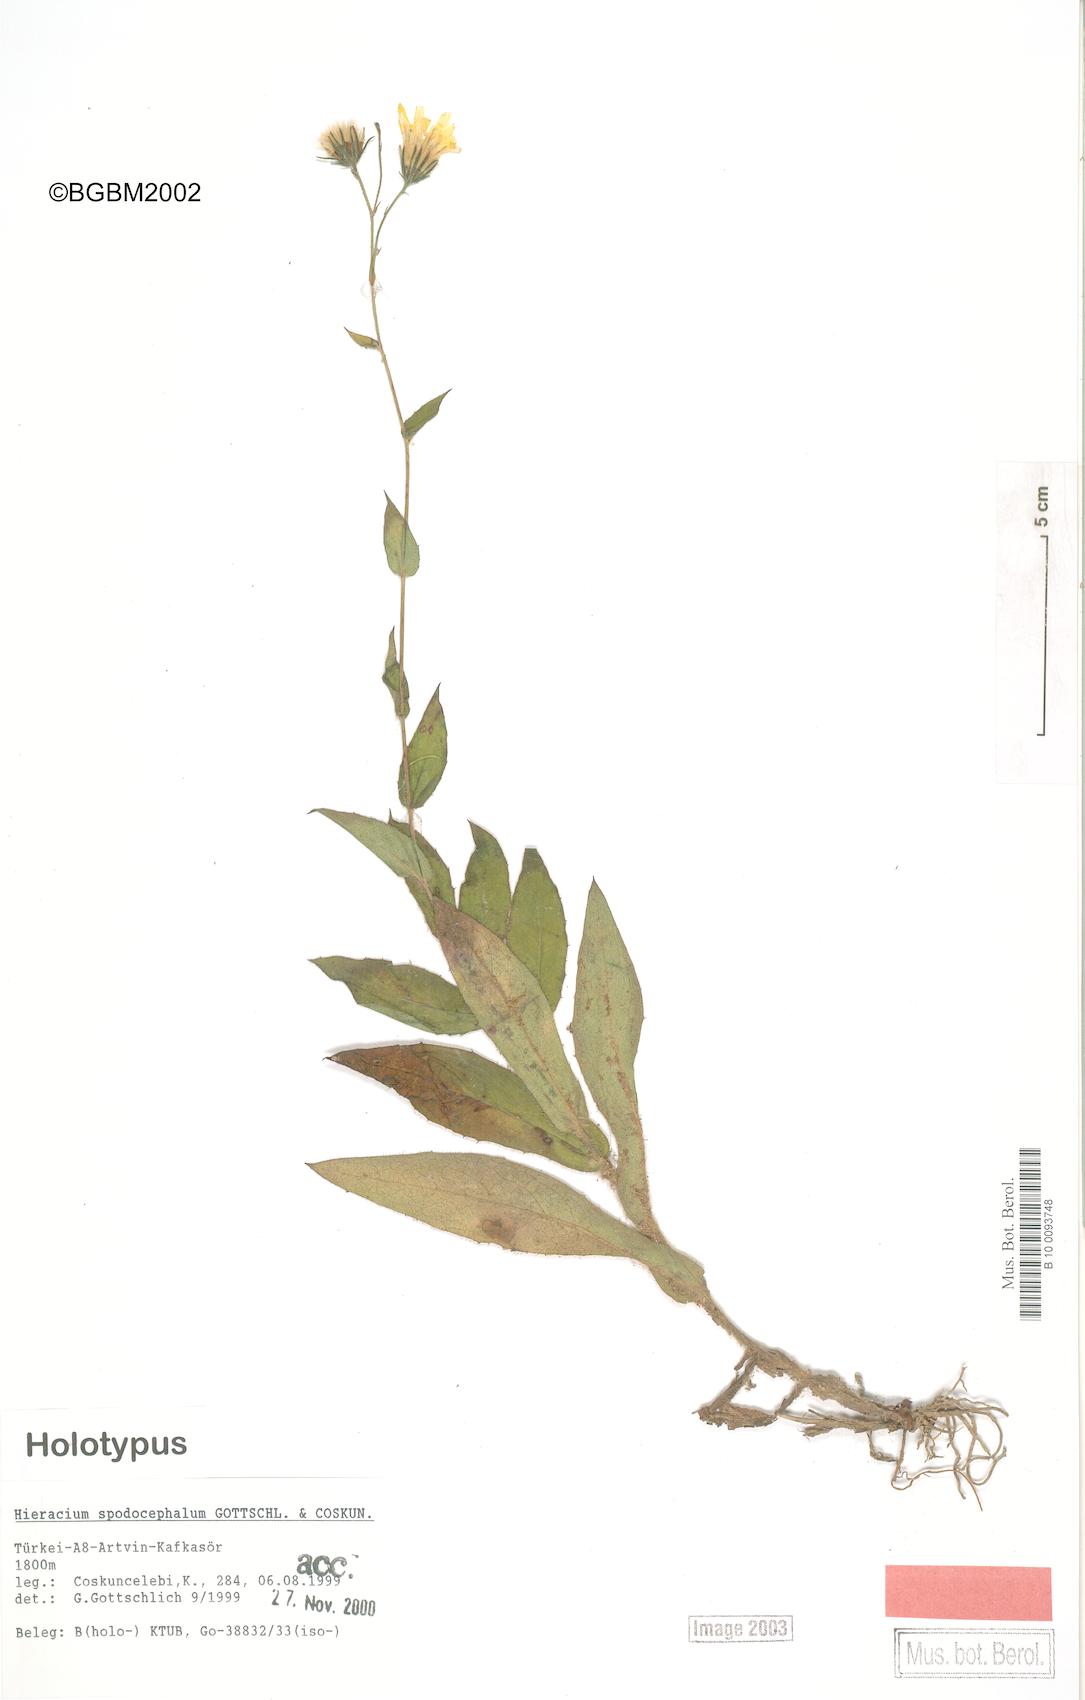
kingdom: Plantae
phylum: Tracheophyta
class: Magnoliopsida
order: Asterales
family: Asteraceae
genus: Hieracium
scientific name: Hieracium spodocephalum
